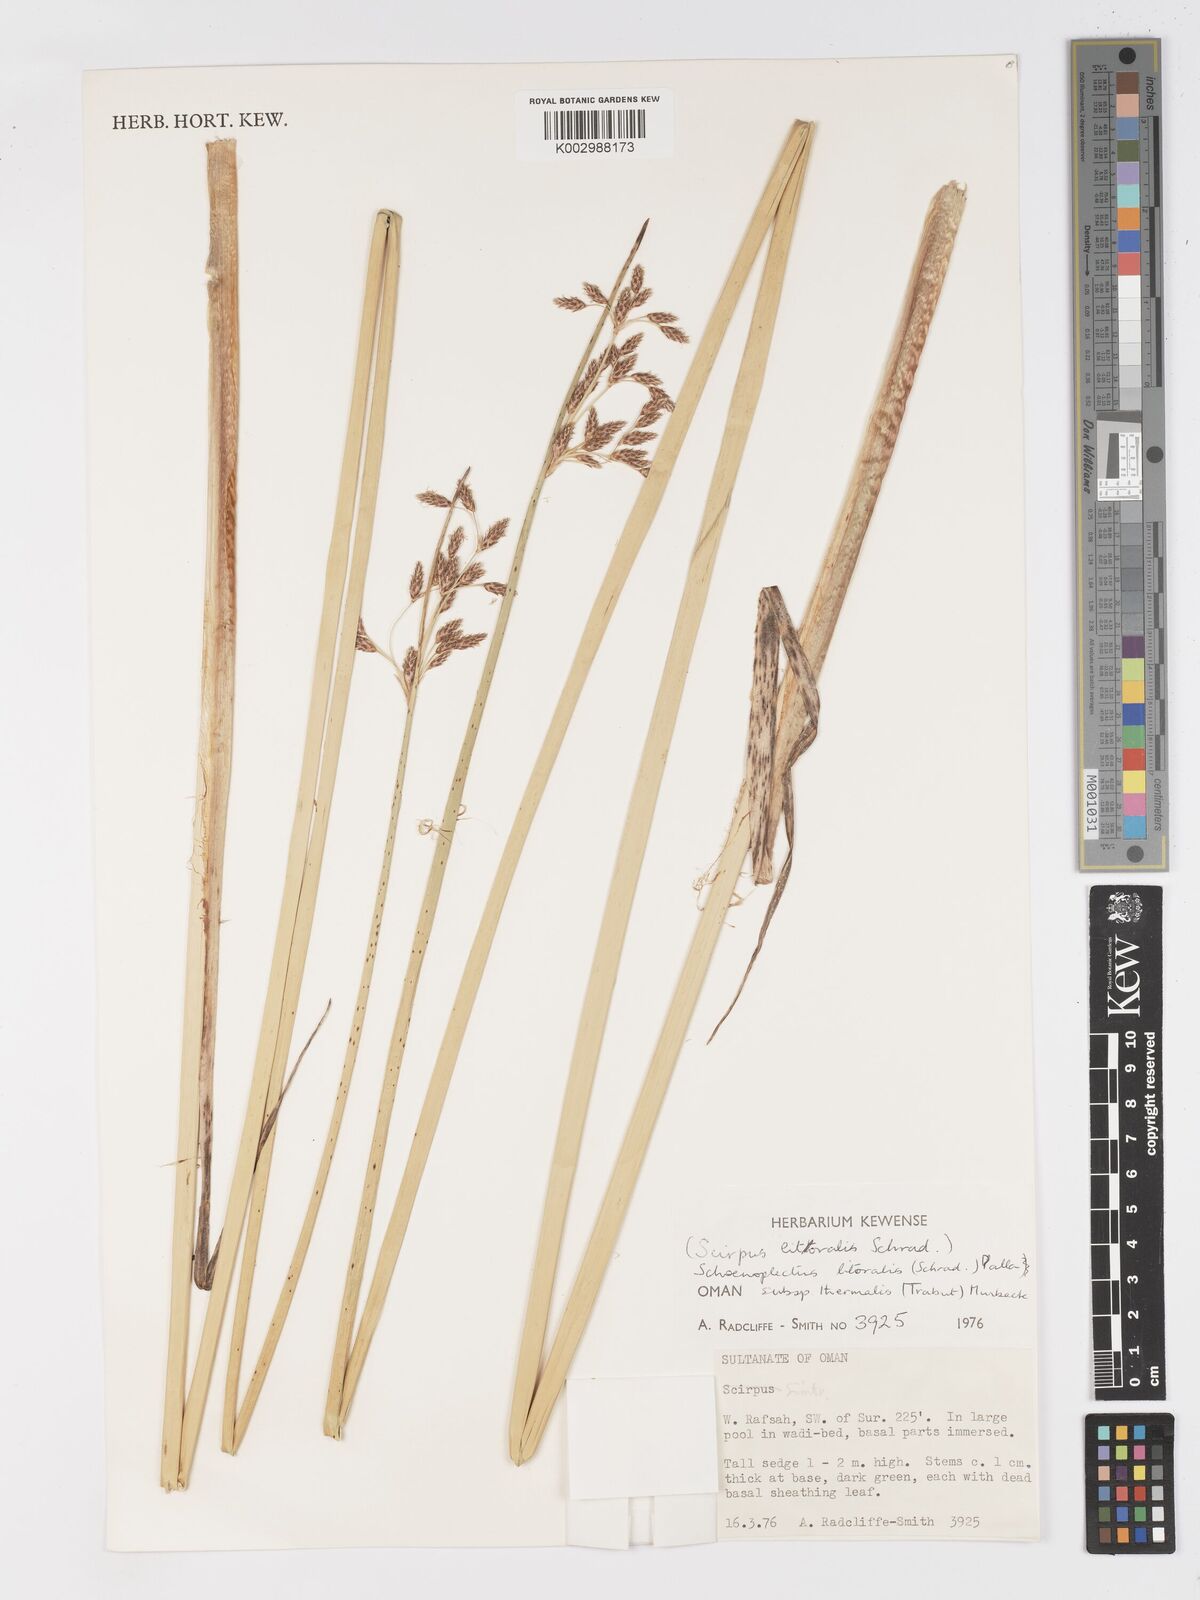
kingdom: Plantae
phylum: Tracheophyta
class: Liliopsida
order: Poales
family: Cyperaceae
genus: Schoenoplectus
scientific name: Schoenoplectus litoralis
